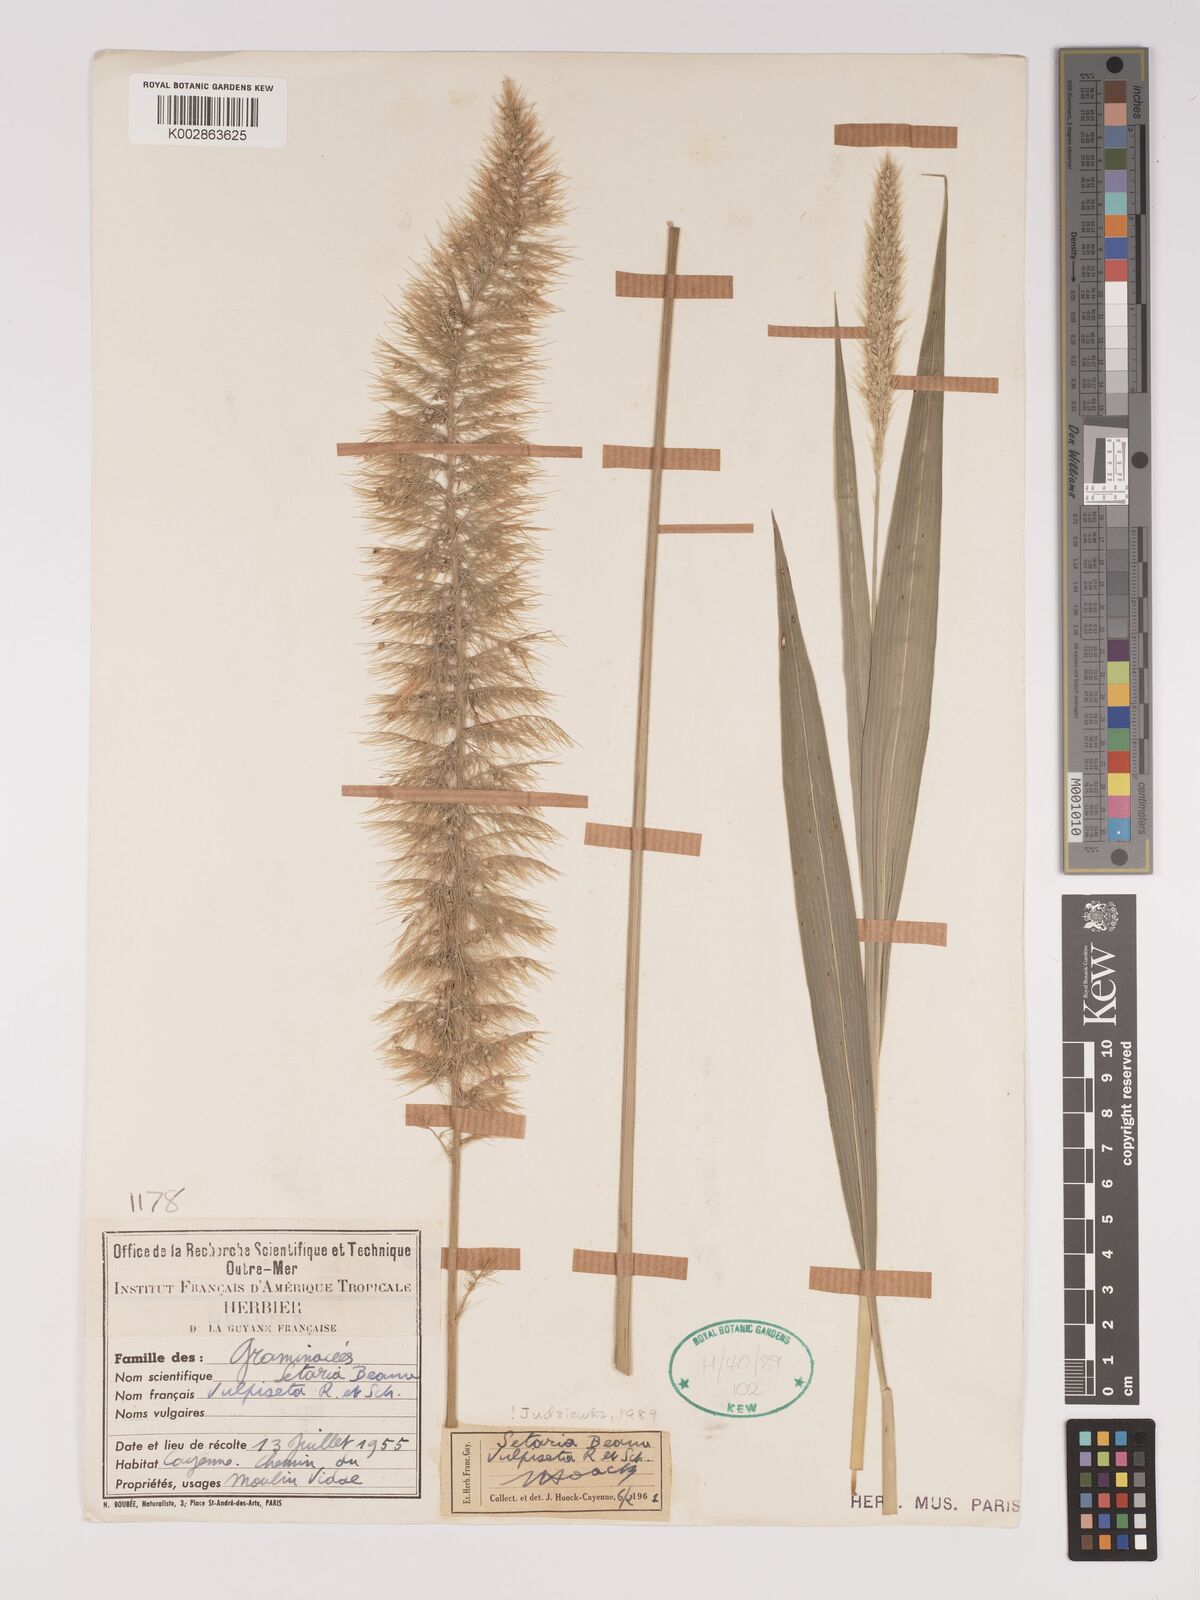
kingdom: Plantae
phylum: Tracheophyta
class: Liliopsida
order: Poales
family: Poaceae
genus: Setaria
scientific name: Setaria vulpiseta
